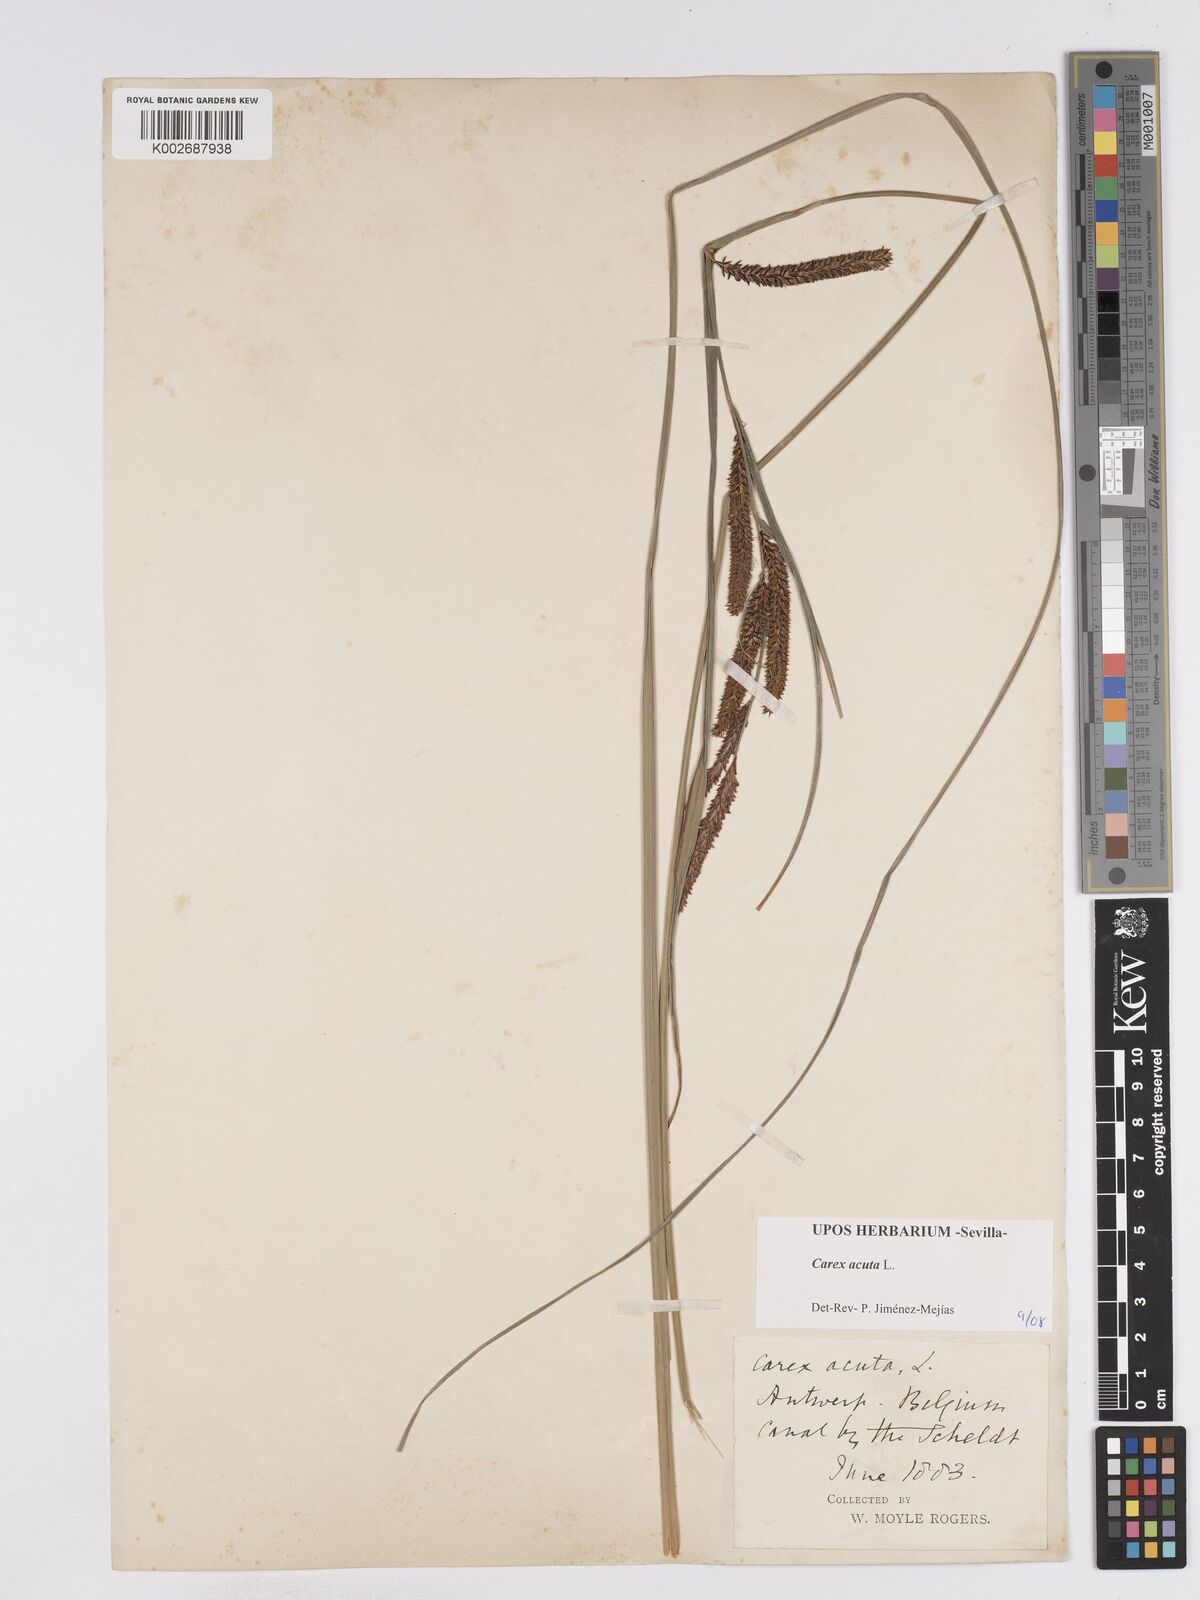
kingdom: Plantae
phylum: Tracheophyta
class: Liliopsida
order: Poales
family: Cyperaceae
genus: Carex
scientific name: Carex acuta
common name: Slender tufted-sedge
